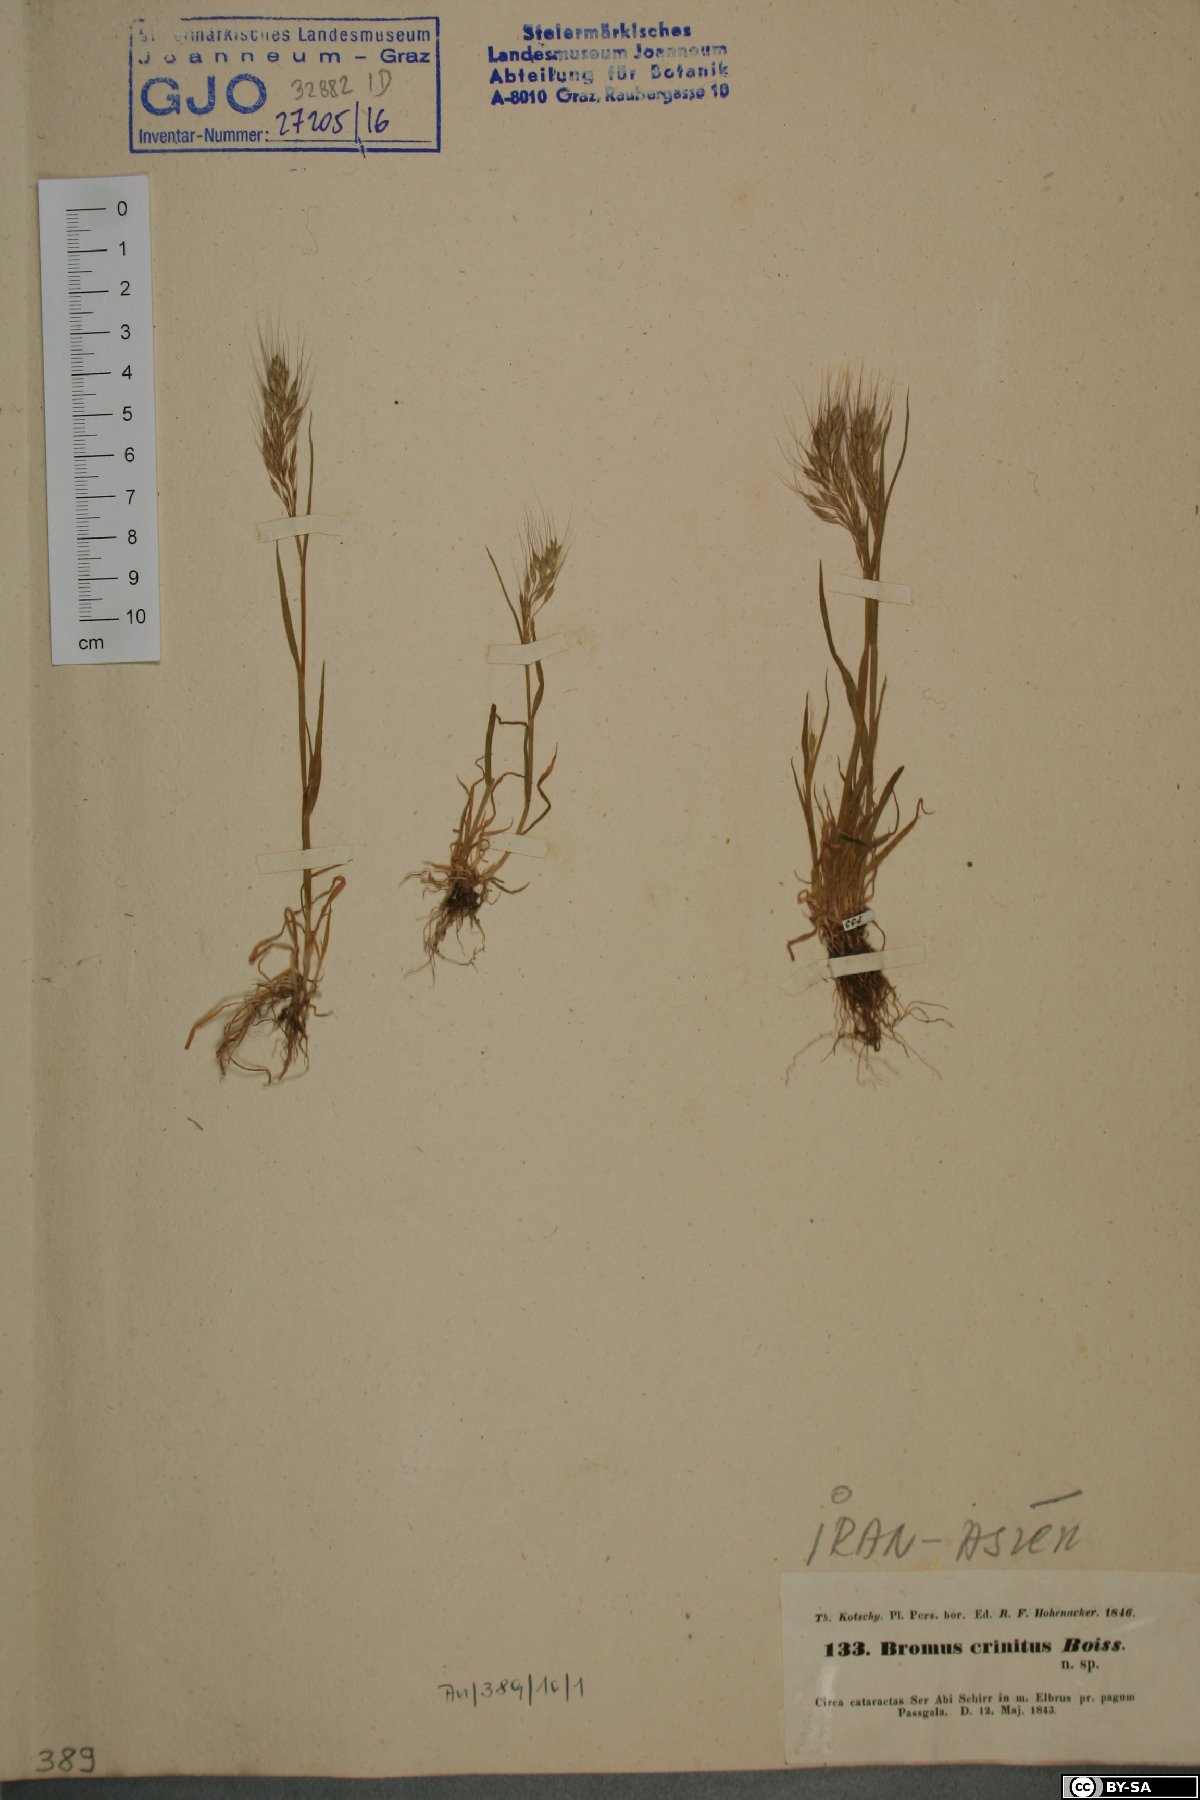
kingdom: Plantae
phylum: Tracheophyta
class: Liliopsida
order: Poales
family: Poaceae
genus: Bromus
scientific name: Bromus gracillimus
